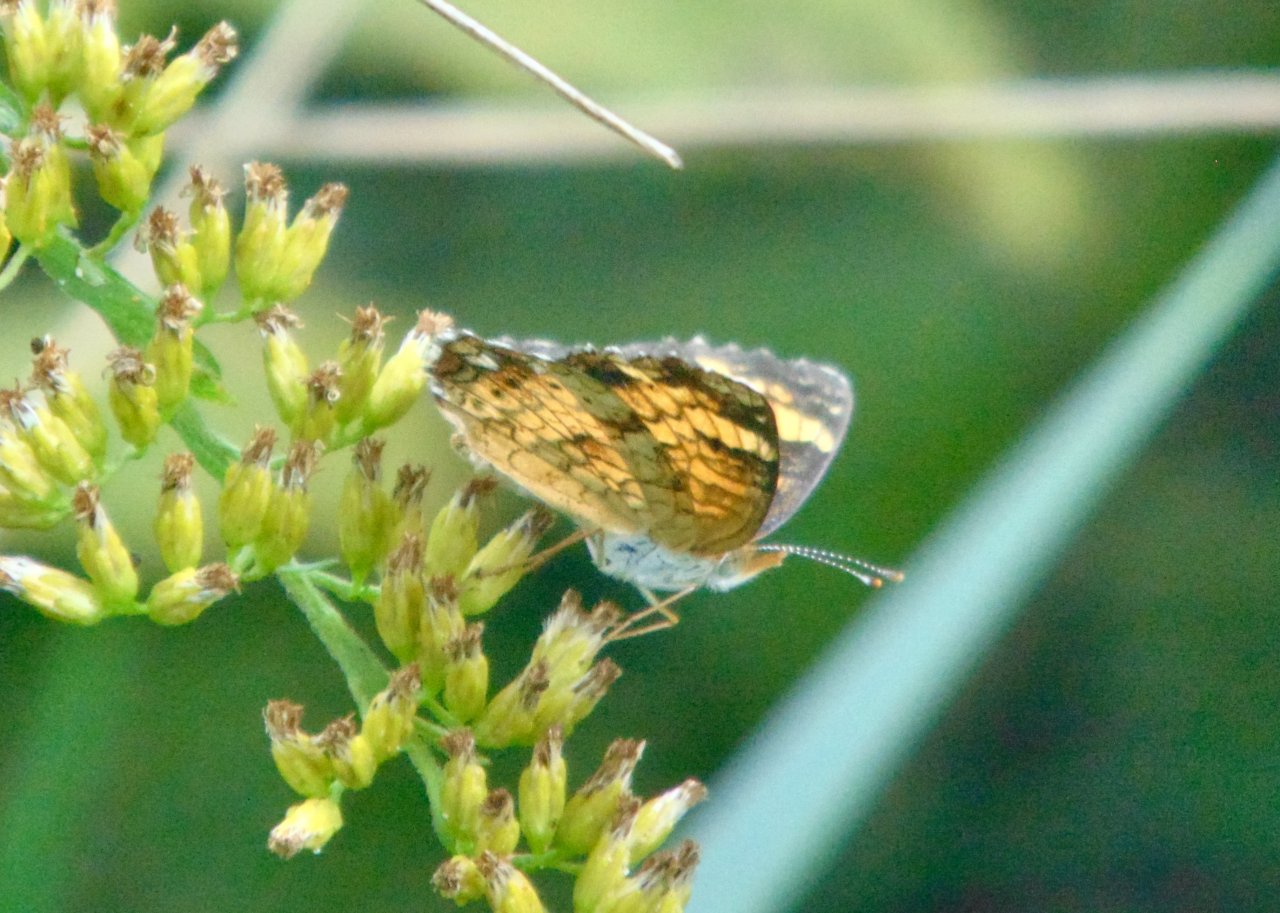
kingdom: Animalia
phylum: Arthropoda
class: Insecta
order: Lepidoptera
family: Nymphalidae
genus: Phyciodes
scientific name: Phyciodes tharos
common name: Pearl Crescent
